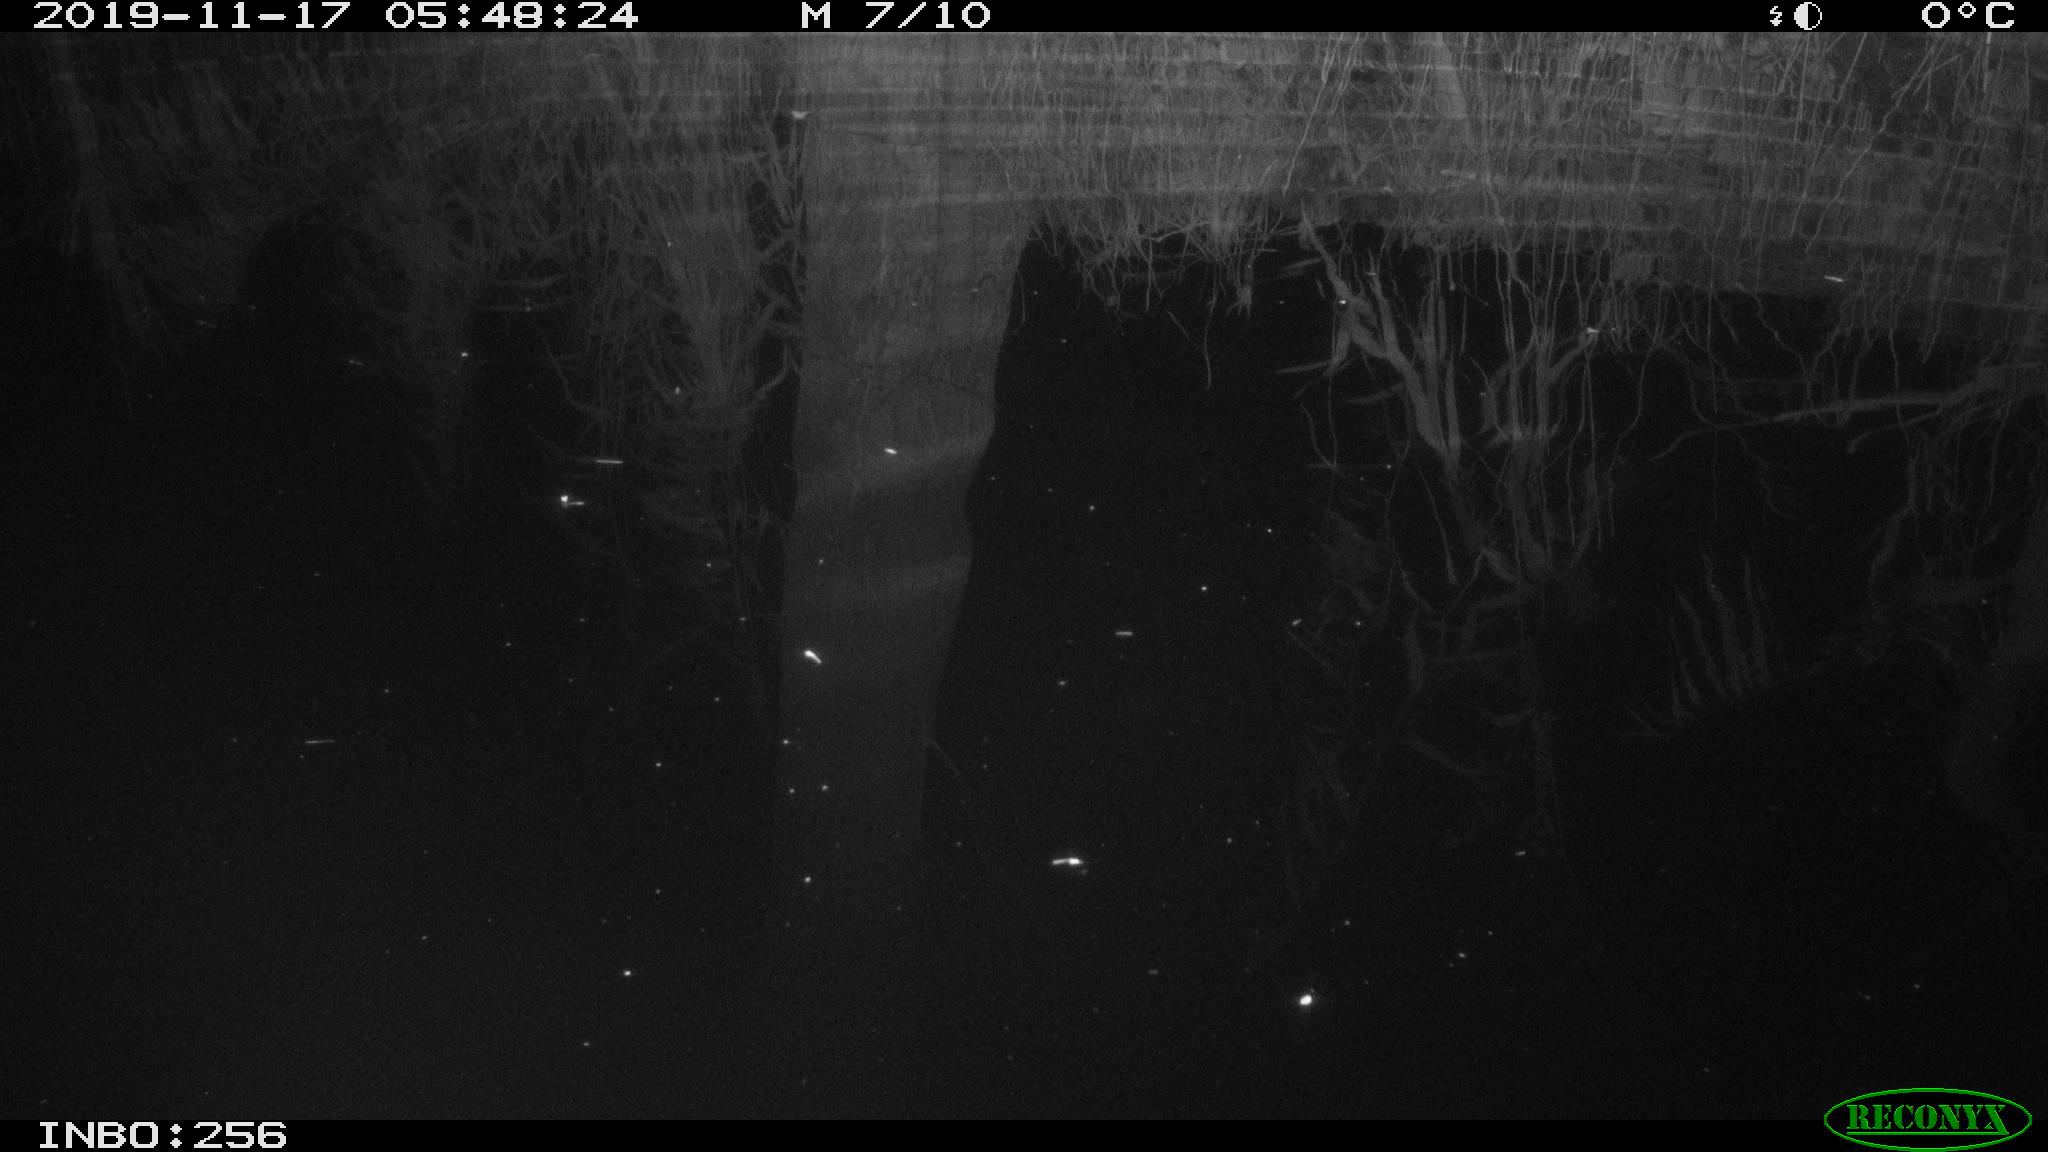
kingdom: Animalia
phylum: Chordata
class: Aves
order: Anseriformes
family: Anatidae
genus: Anas
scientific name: Anas platyrhynchos
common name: Mallard
